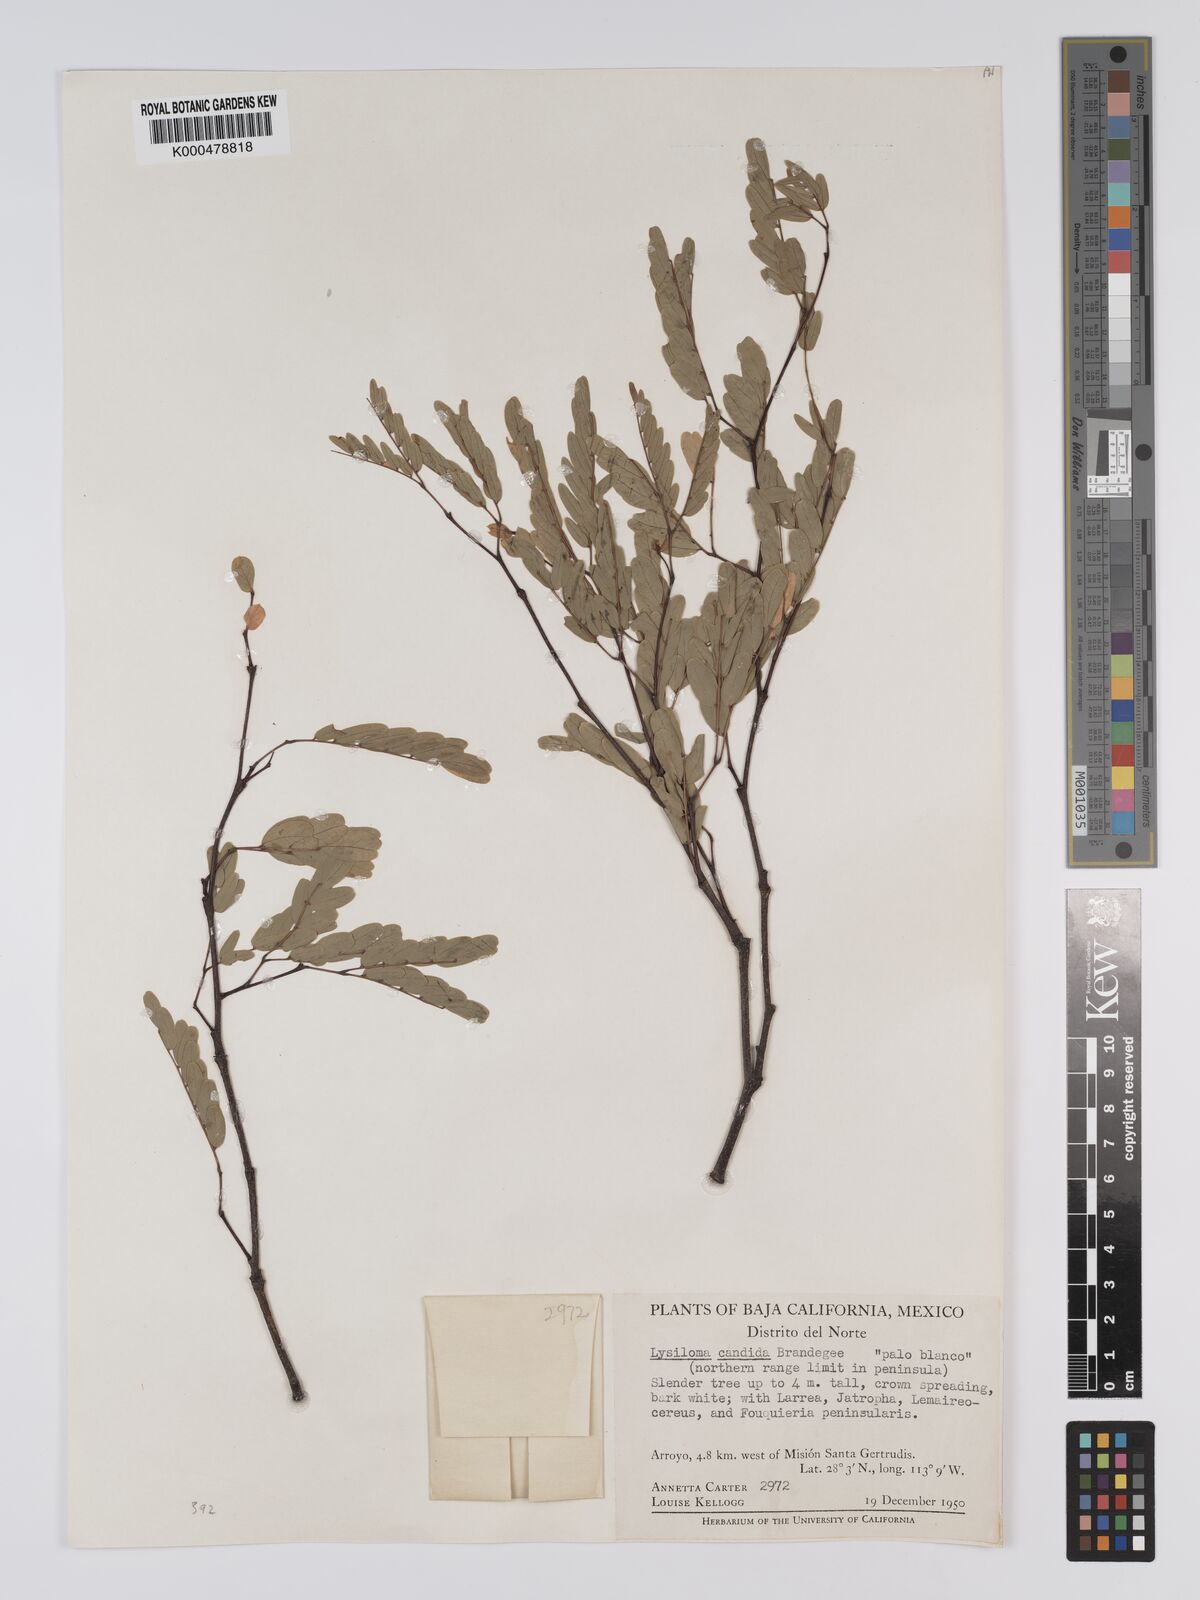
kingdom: Plantae
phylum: Tracheophyta
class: Magnoliopsida
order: Fabales
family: Fabaceae
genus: Lysiloma
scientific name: Lysiloma candidum
